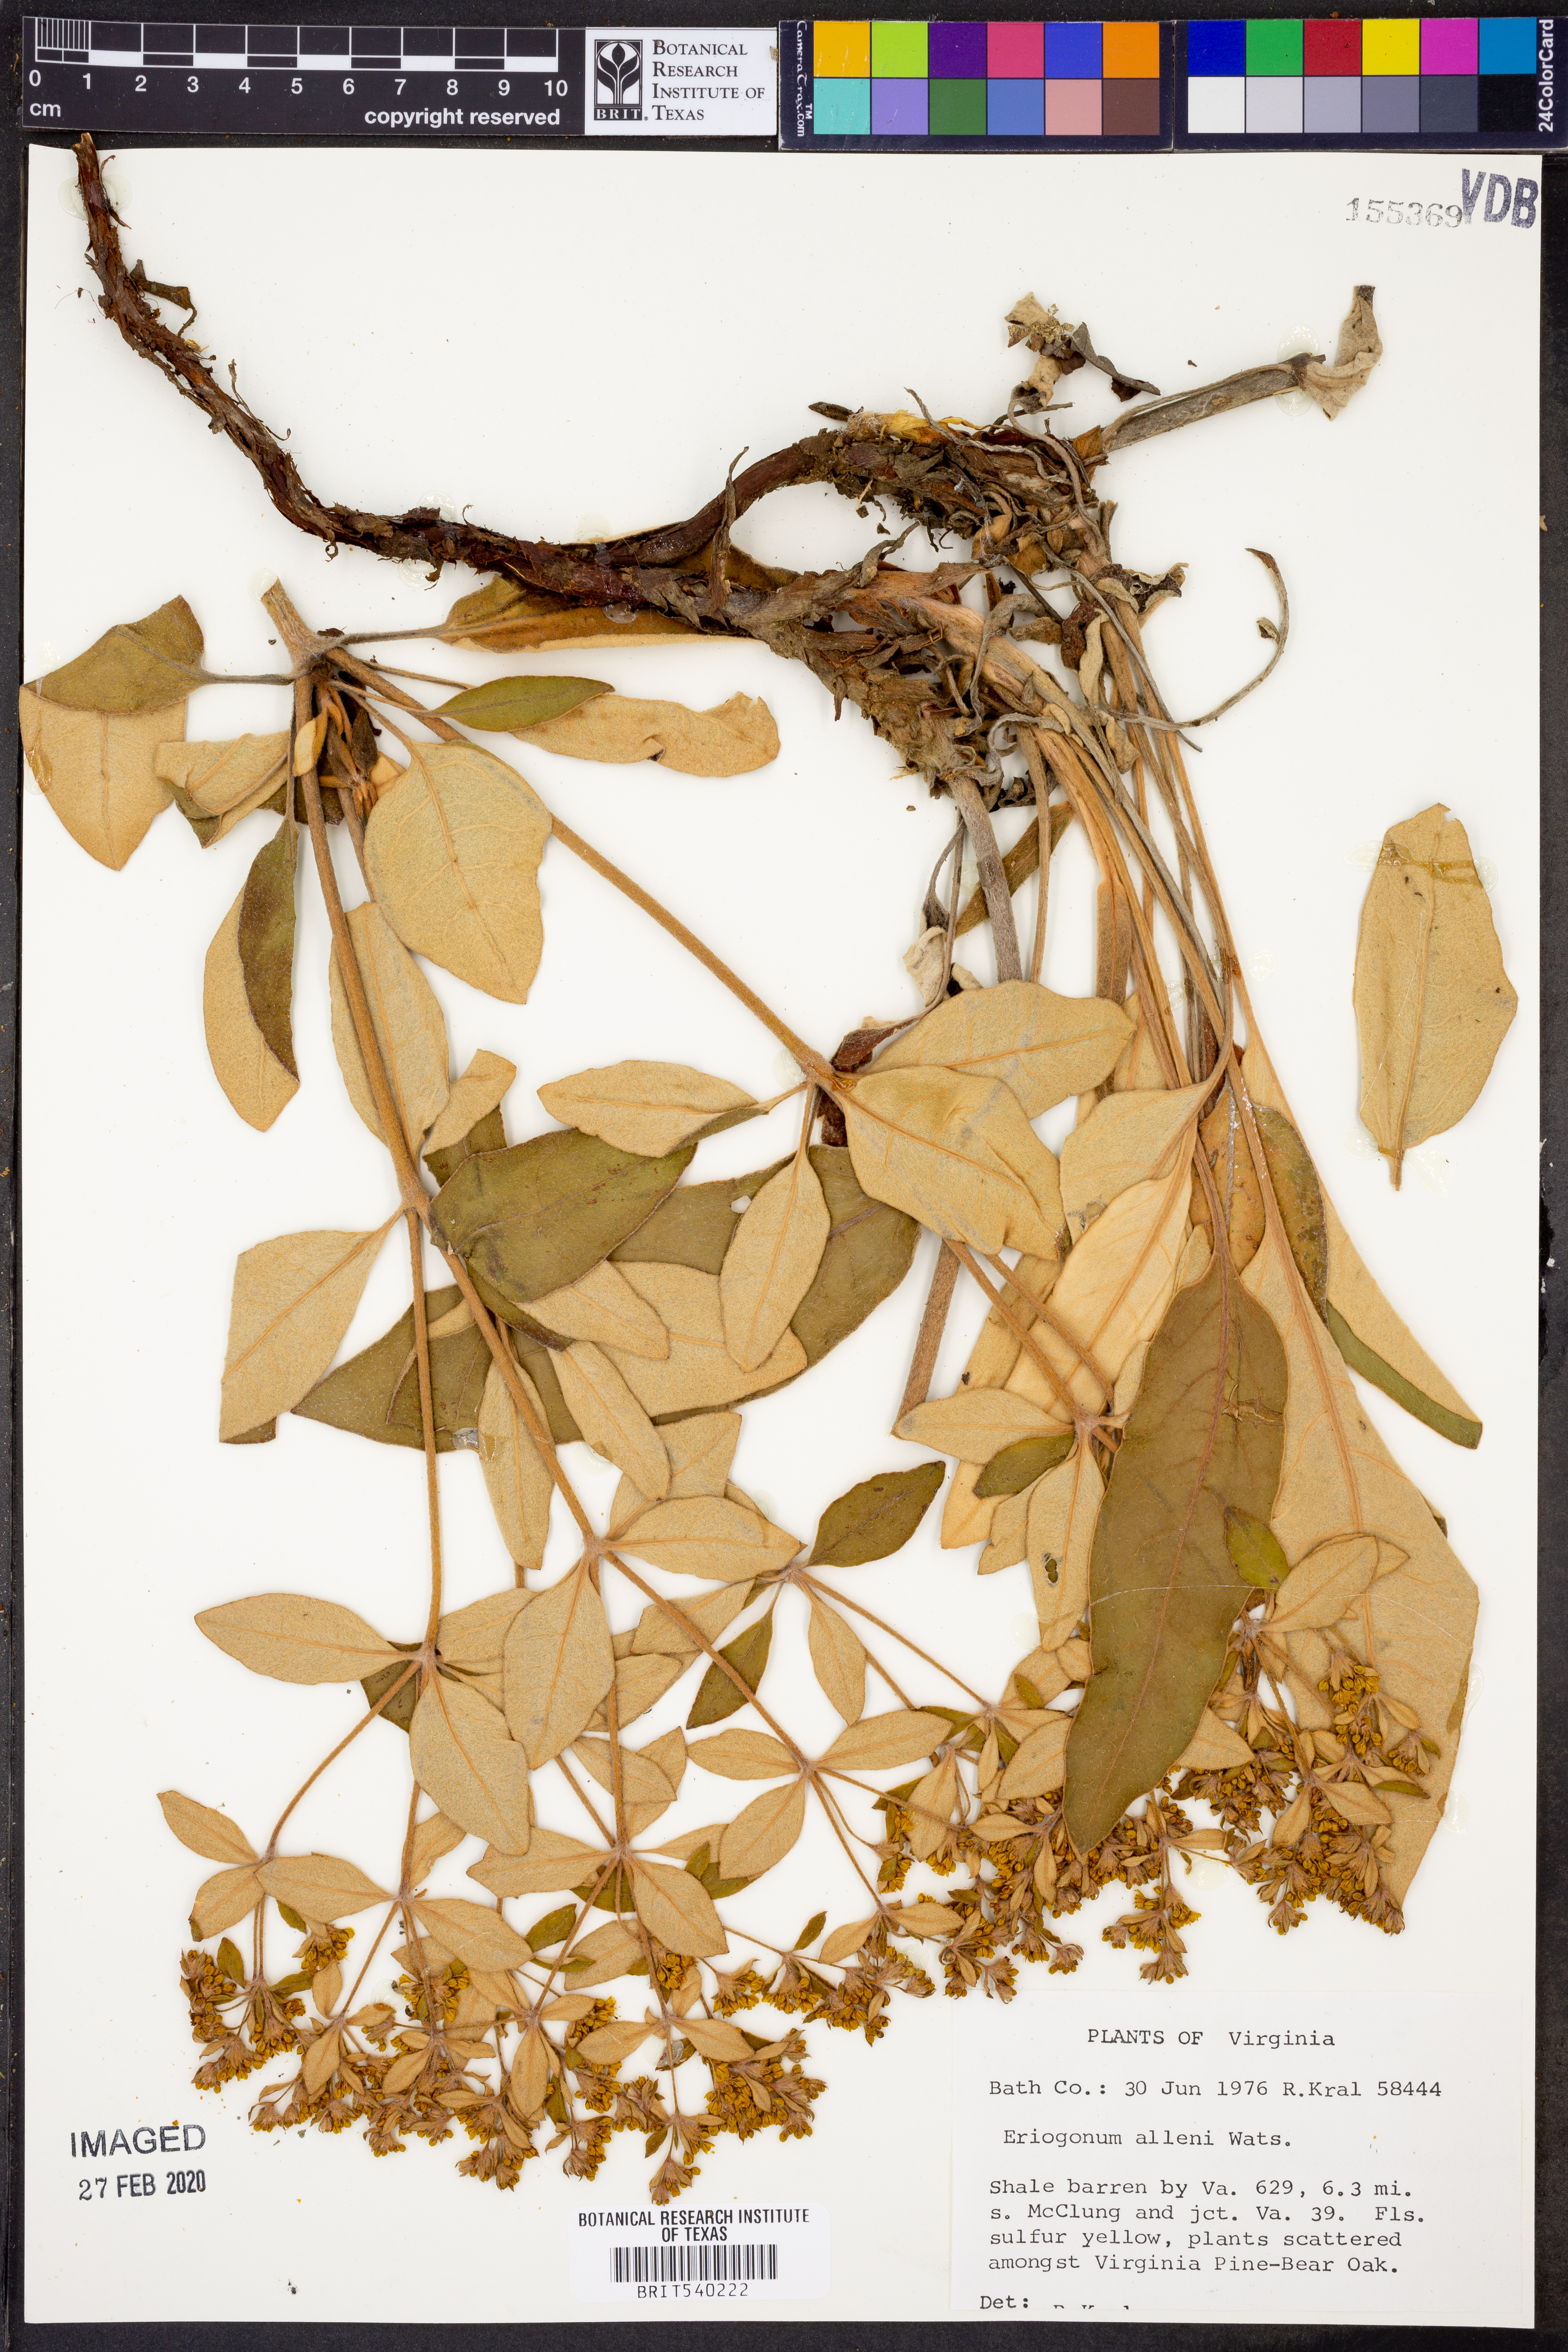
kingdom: Plantae
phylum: Tracheophyta
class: Magnoliopsida
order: Caryophyllales
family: Polygonaceae
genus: Eriogonum
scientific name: Eriogonum allenii
